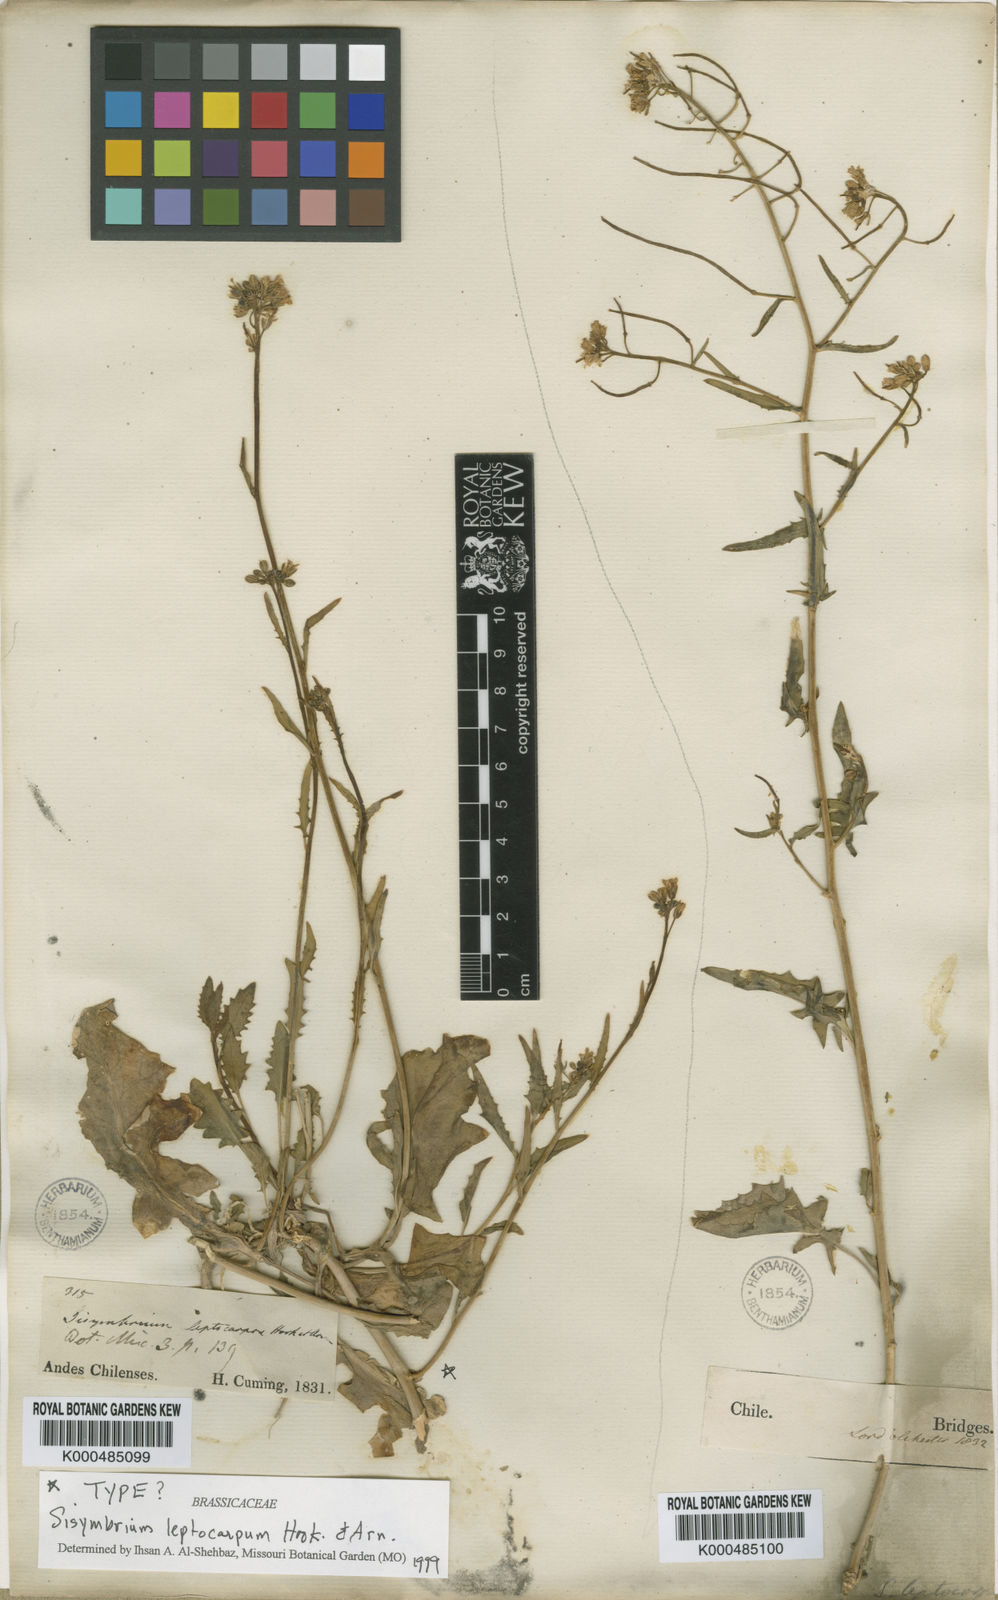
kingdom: Plantae
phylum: Tracheophyta
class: Magnoliopsida
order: Brassicales
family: Brassicaceae
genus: Mostacillastrum
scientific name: Mostacillastrum leptocarpum
